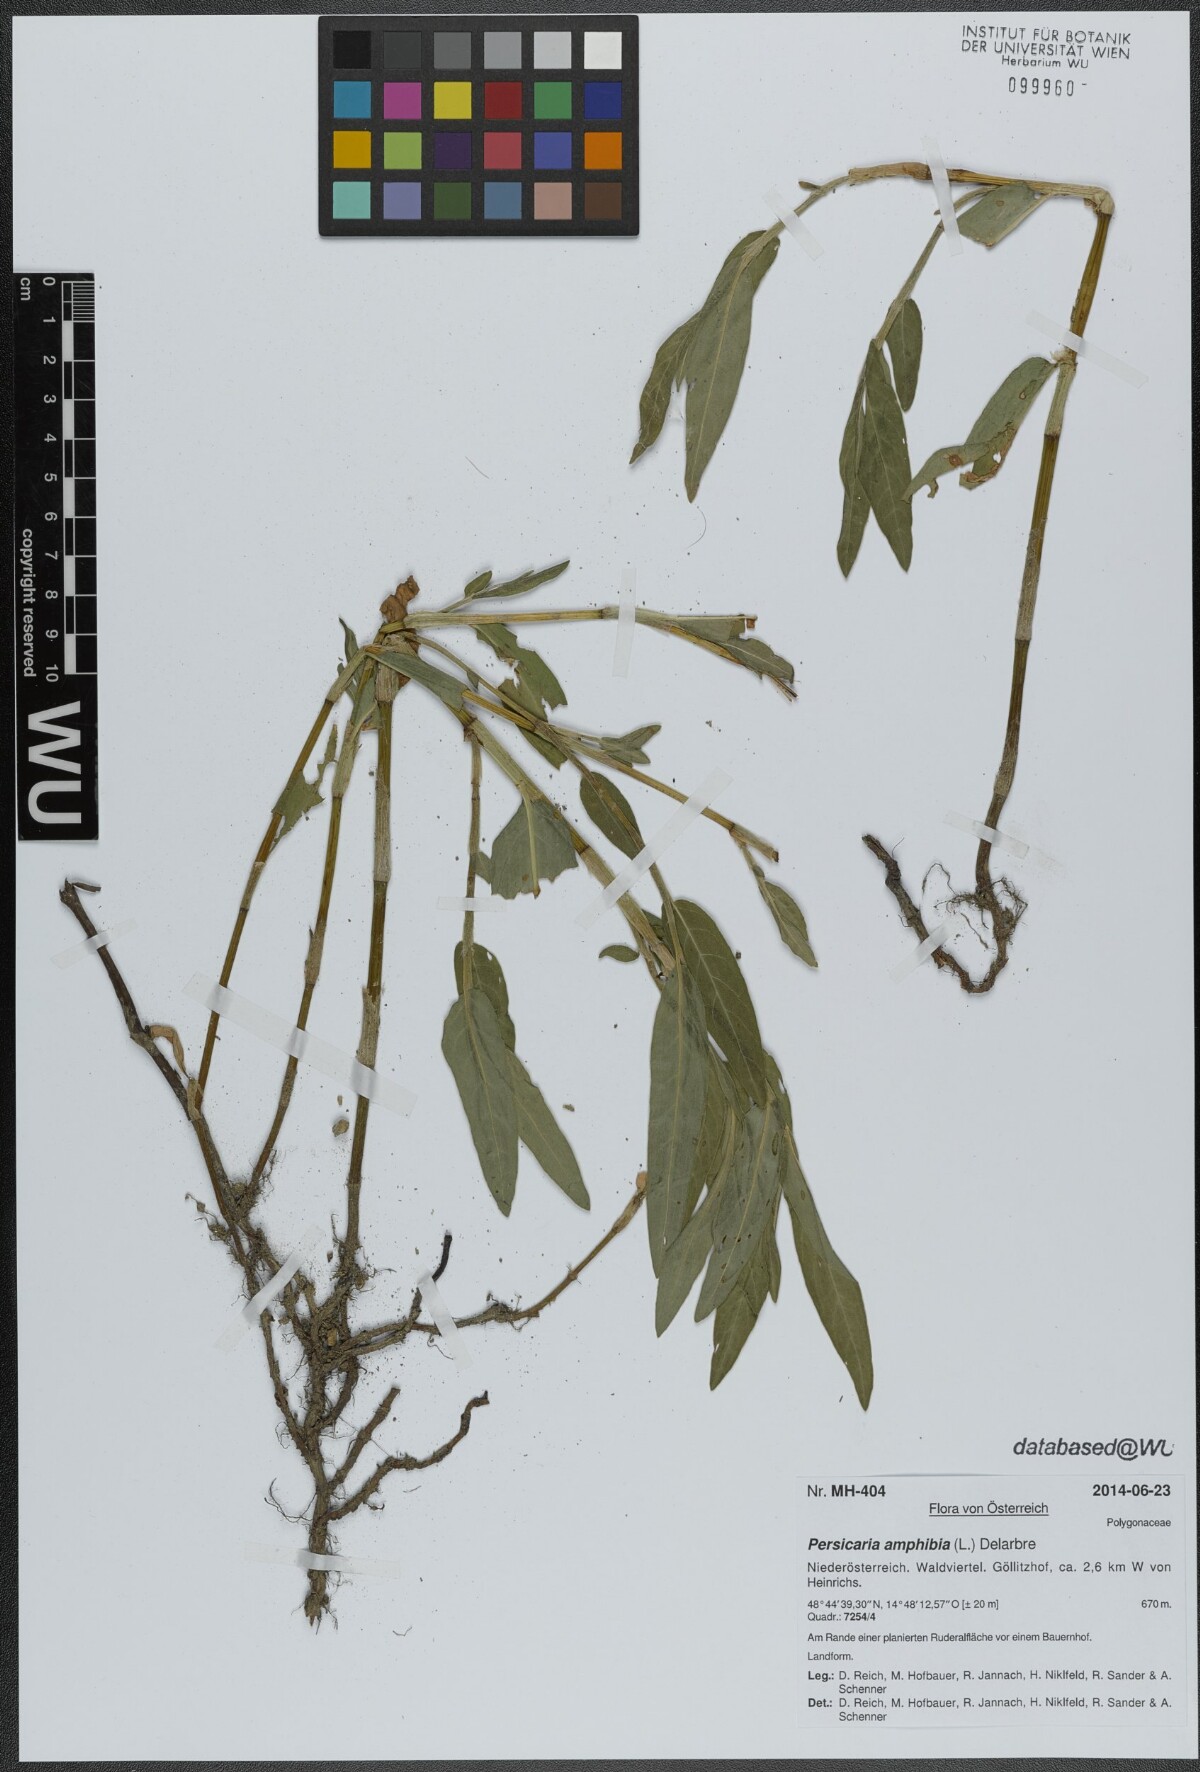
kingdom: Plantae
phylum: Tracheophyta
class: Magnoliopsida
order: Caryophyllales
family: Polygonaceae
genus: Persicaria
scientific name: Persicaria amphibia
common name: Amphibious bistort
